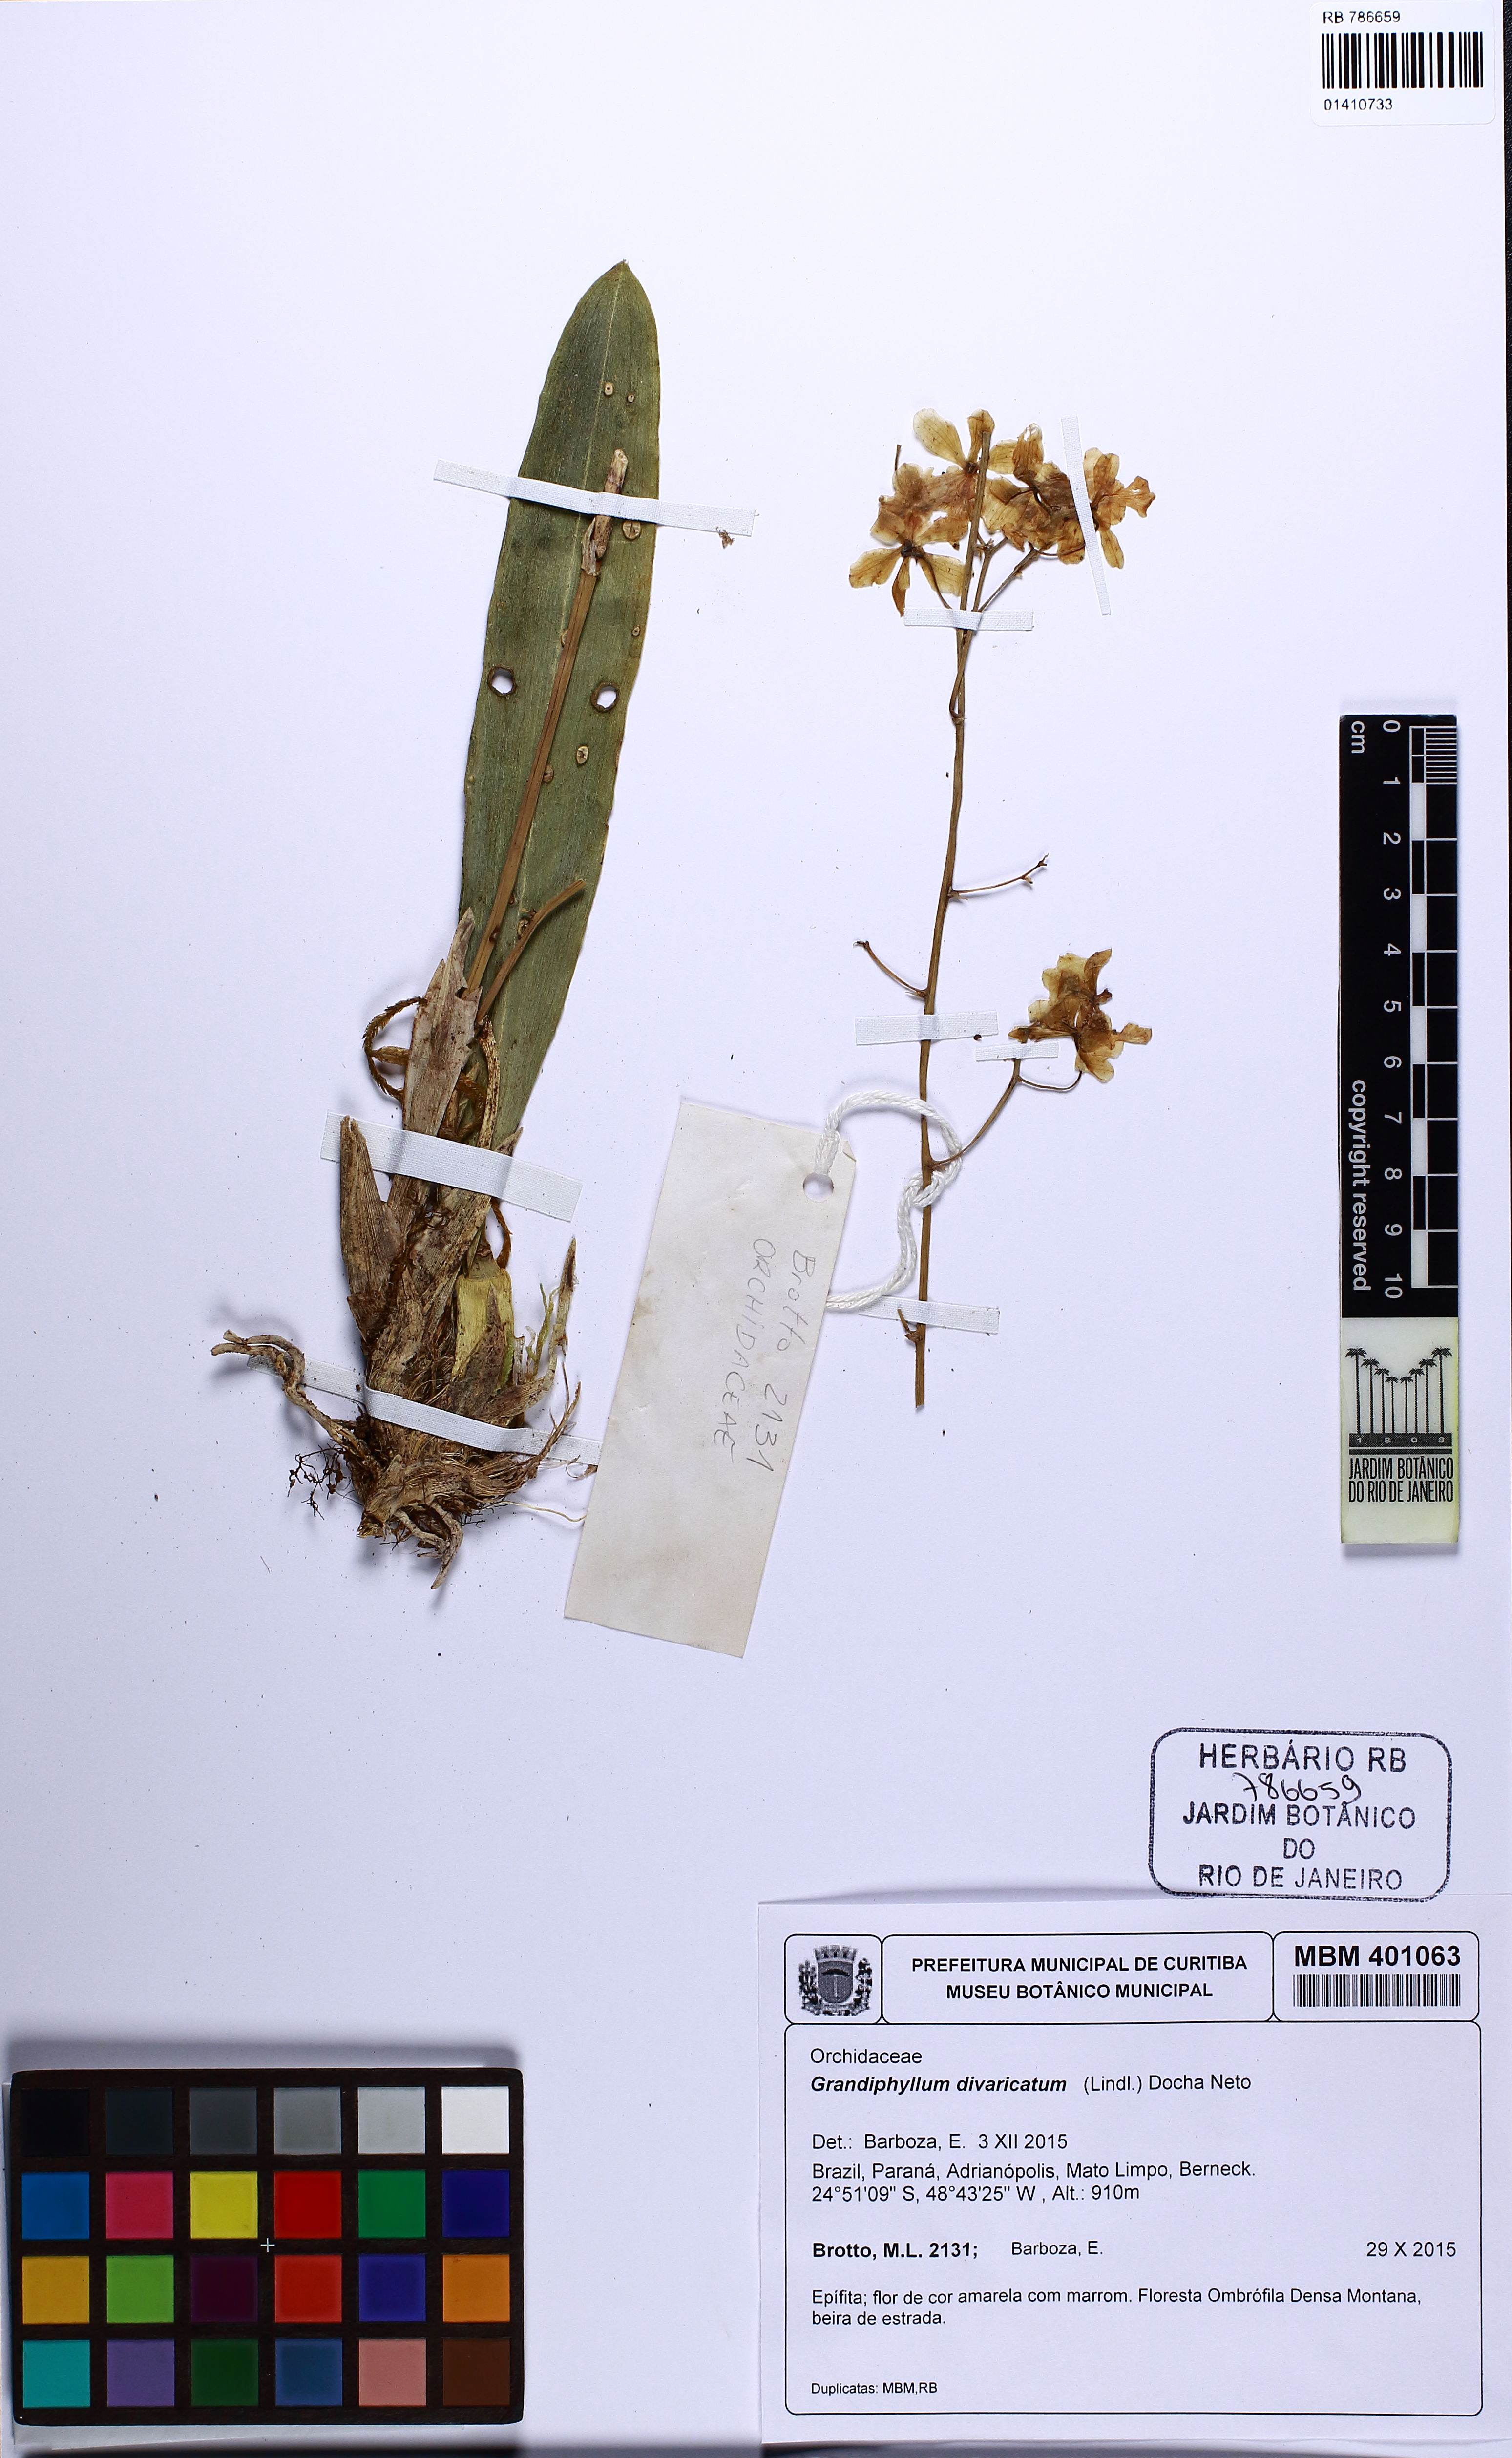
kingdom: Plantae
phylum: Tracheophyta
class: Liliopsida
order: Asparagales
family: Orchidaceae
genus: Grandiphyllum
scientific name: Grandiphyllum divaricatum
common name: Mule-ear orchid
